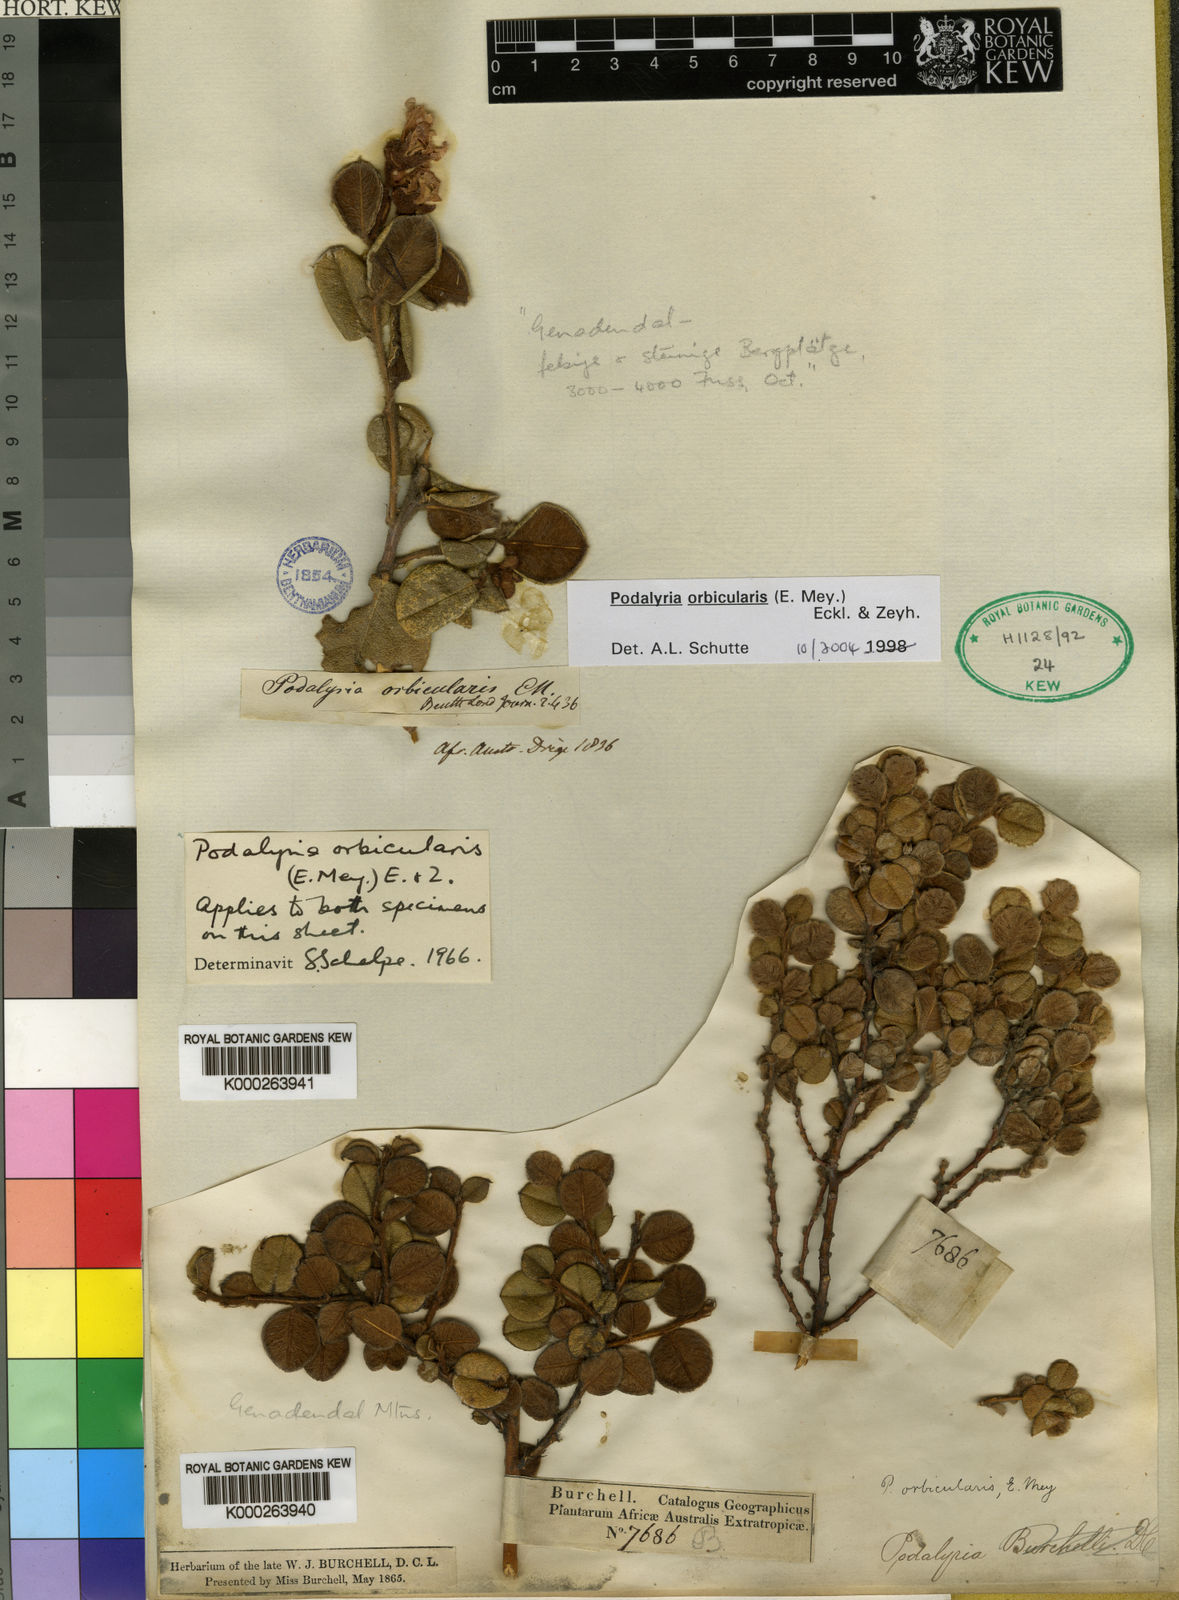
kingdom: Plantae
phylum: Tracheophyta
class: Magnoliopsida
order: Fabales
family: Fabaceae
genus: Podalyria
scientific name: Podalyria orbicularis
